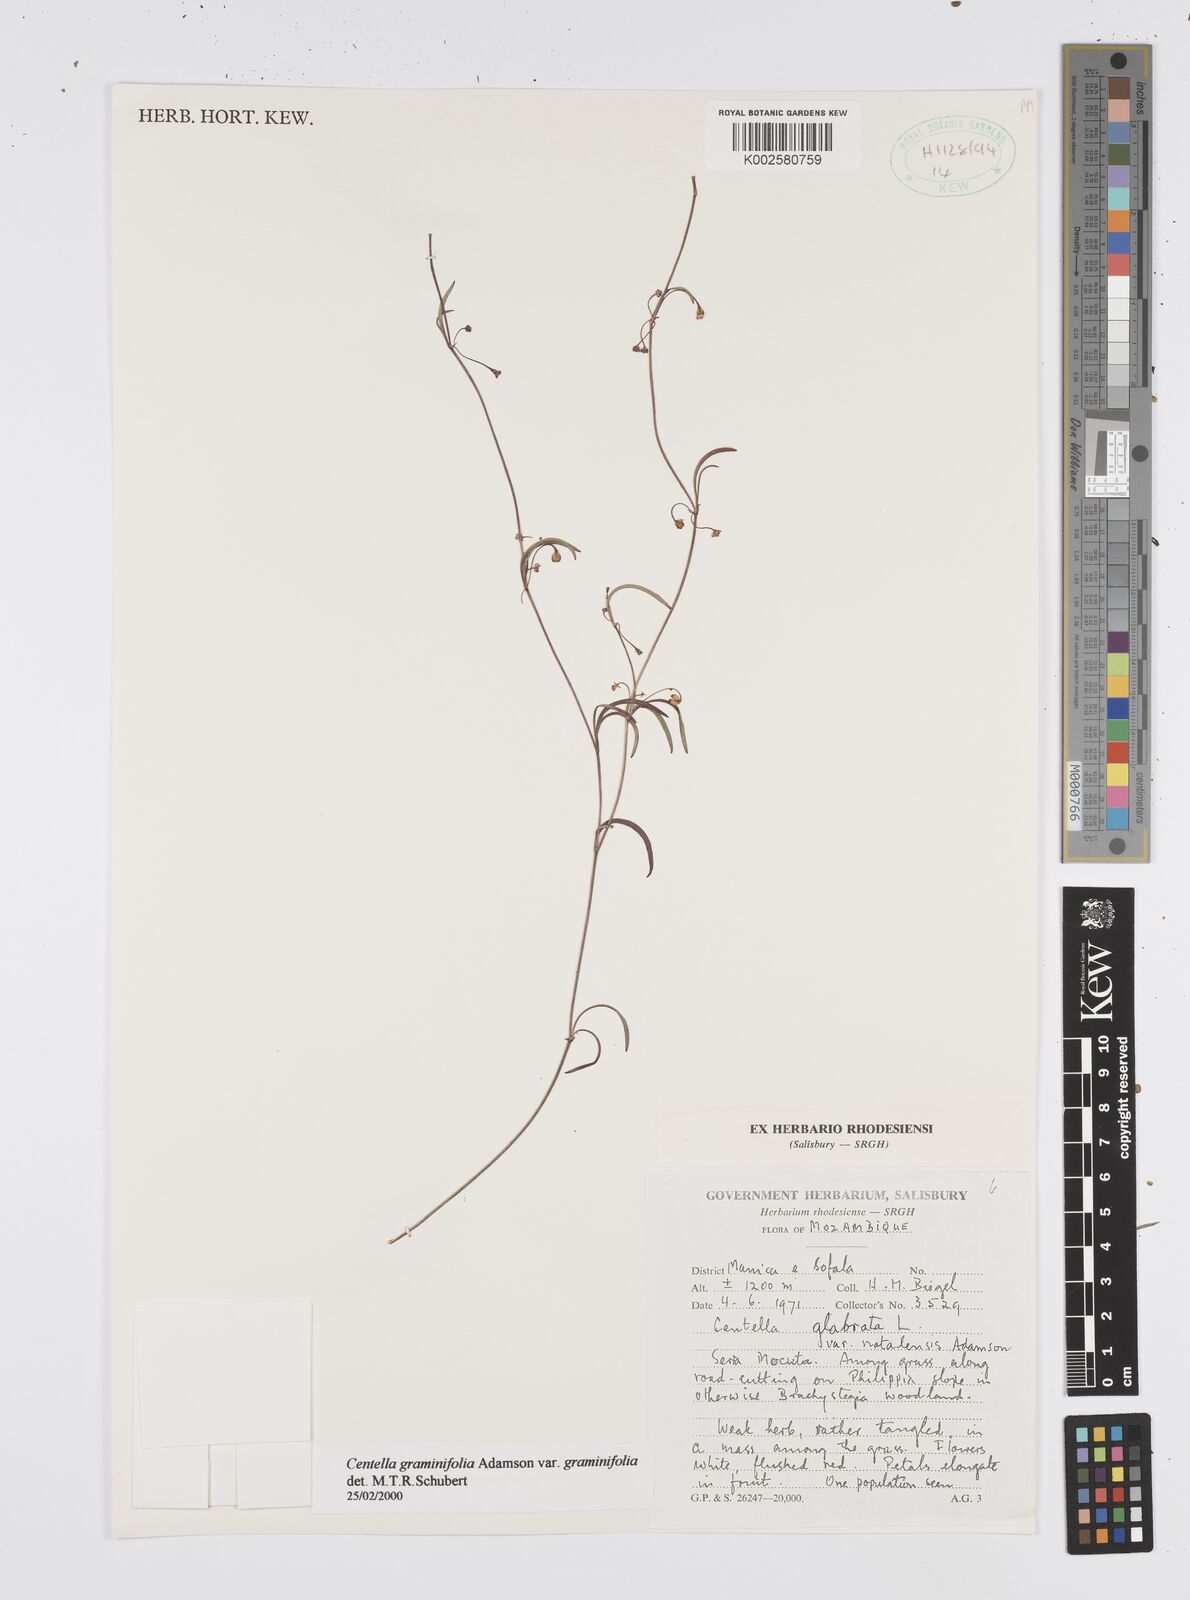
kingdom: Plantae
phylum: Tracheophyta
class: Magnoliopsida
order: Apiales
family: Apiaceae
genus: Centella
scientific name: Centella graminifolia
